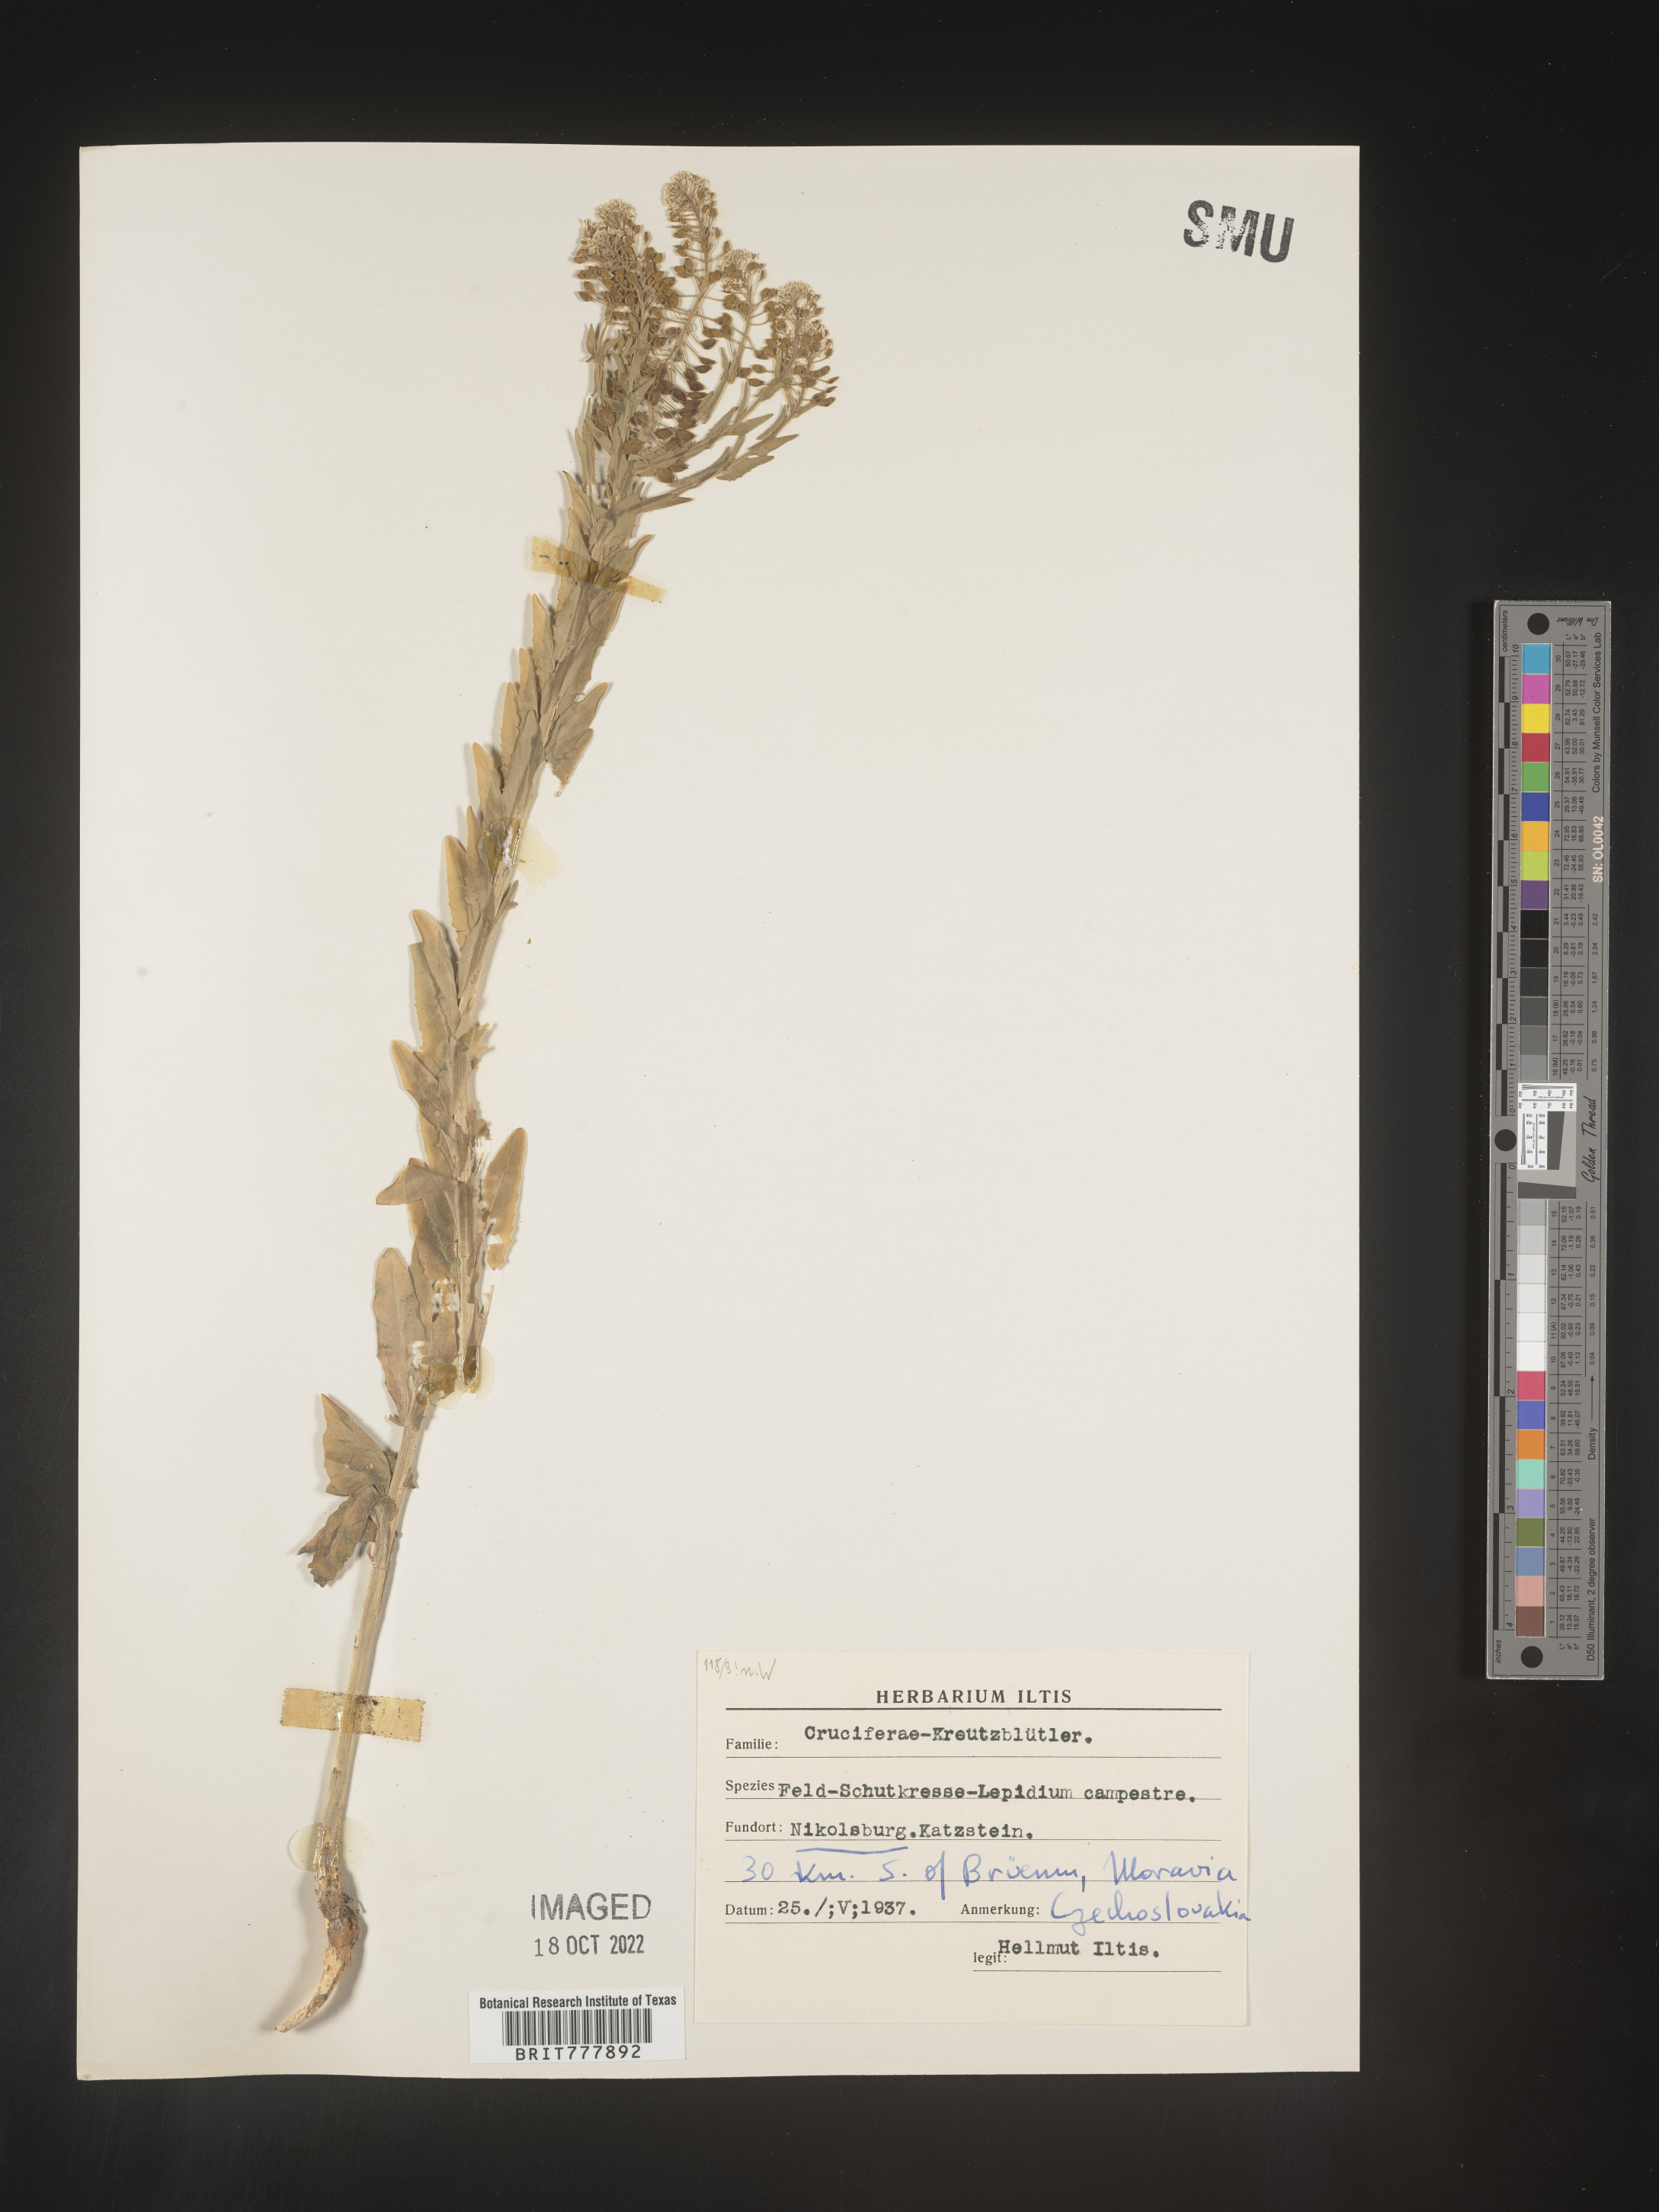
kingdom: Plantae
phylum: Tracheophyta
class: Magnoliopsida
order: Brassicales
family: Brassicaceae
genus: Lepidium
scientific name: Lepidium
